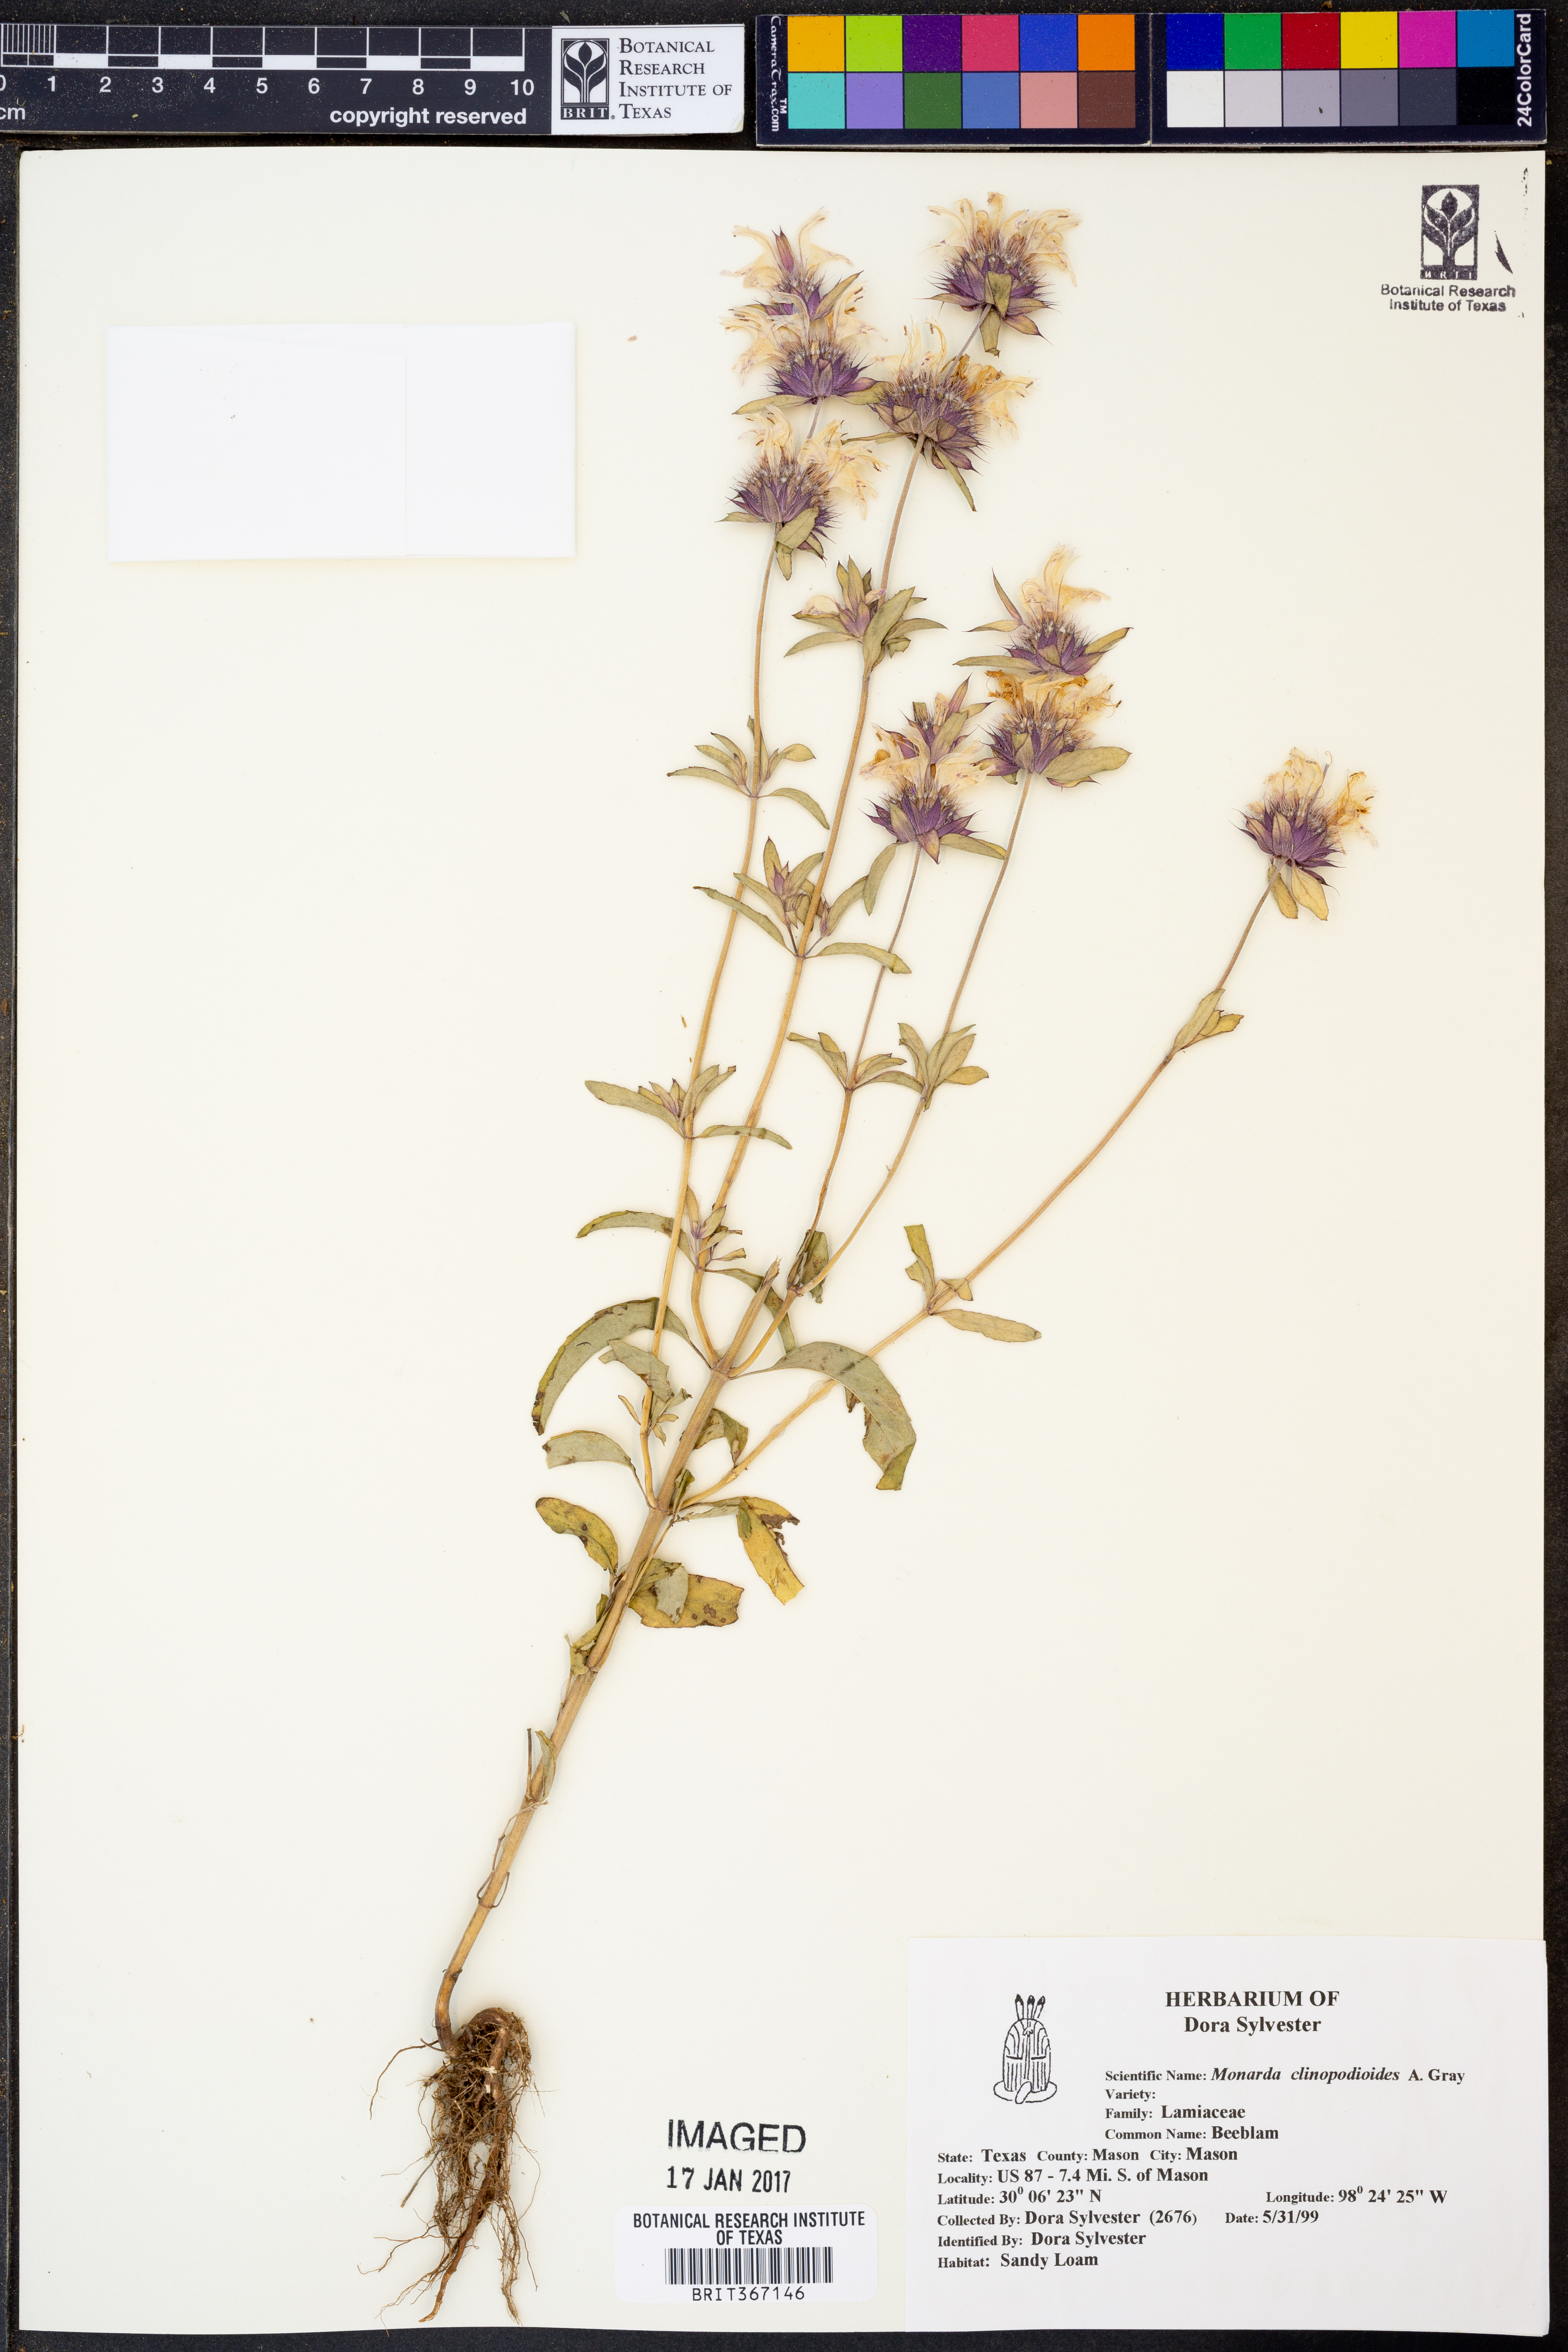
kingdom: Plantae
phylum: Tracheophyta
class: Magnoliopsida
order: Lamiales
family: Lamiaceae
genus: Monarda
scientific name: Monarda clinopodioides
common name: Basil beebalm
